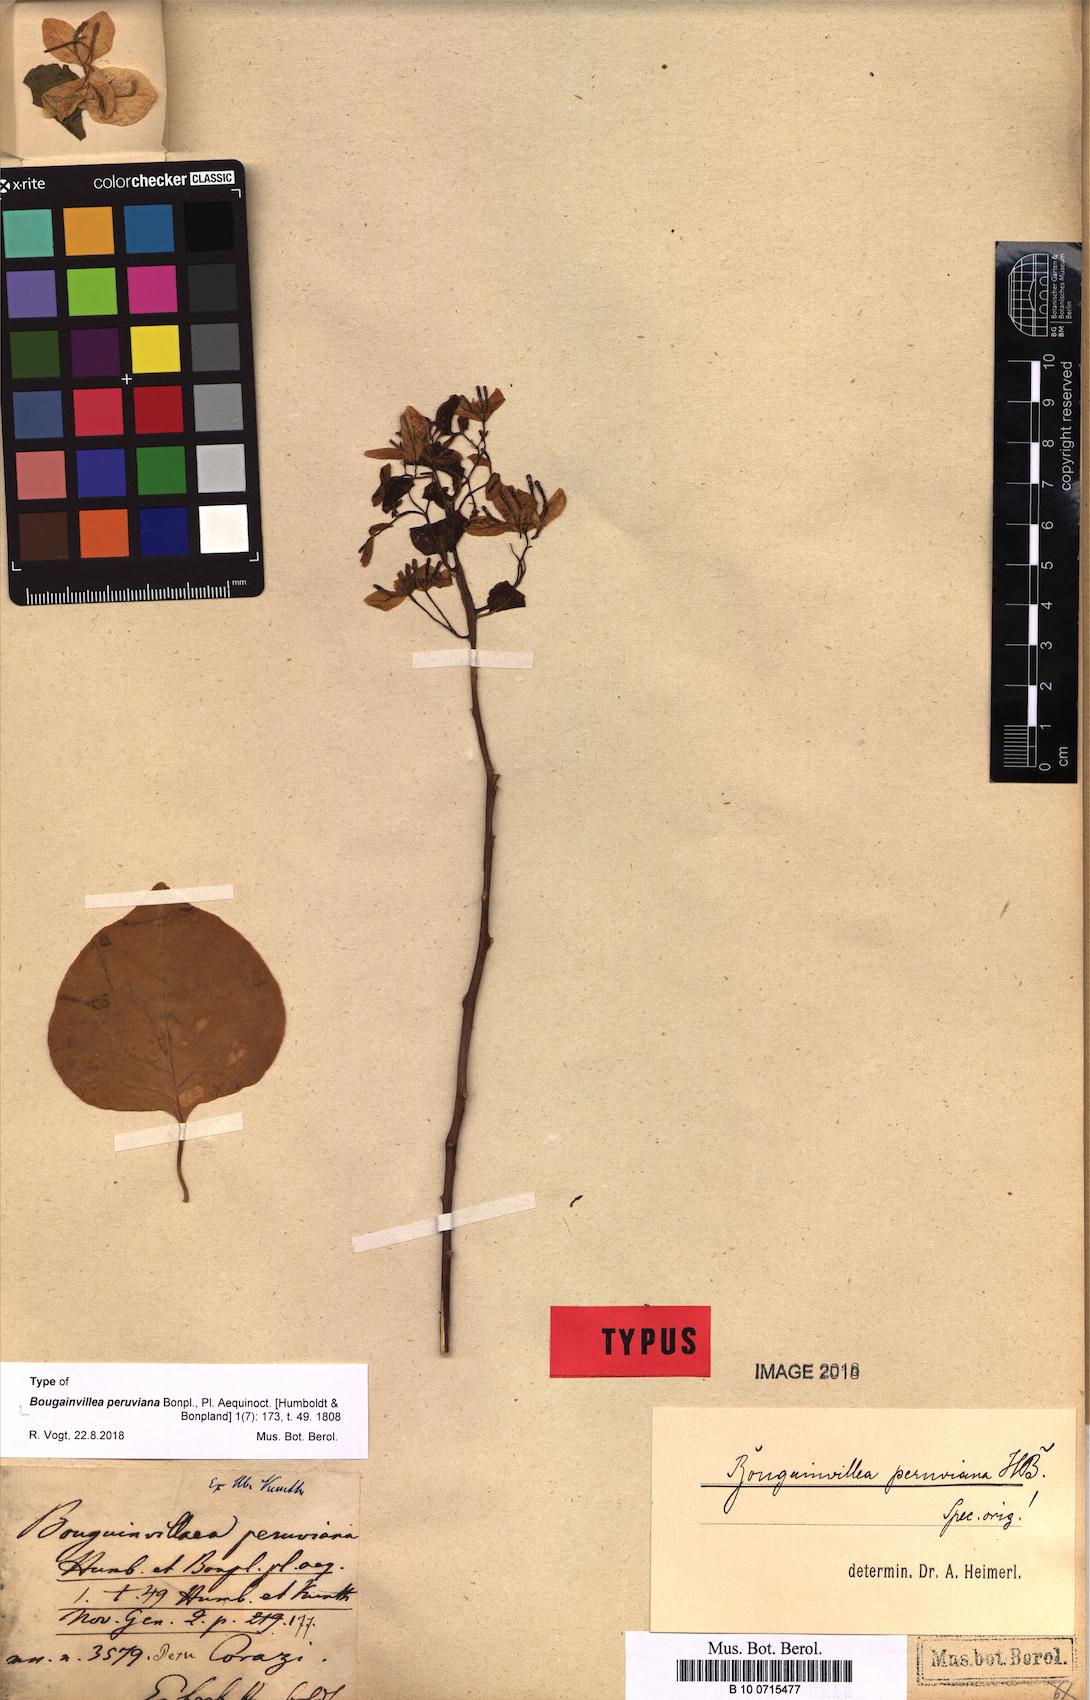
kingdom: Plantae
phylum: Tracheophyta
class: Magnoliopsida
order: Caryophyllales
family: Nyctaginaceae
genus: Bougainvillea
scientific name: Bougainvillea peruviana
